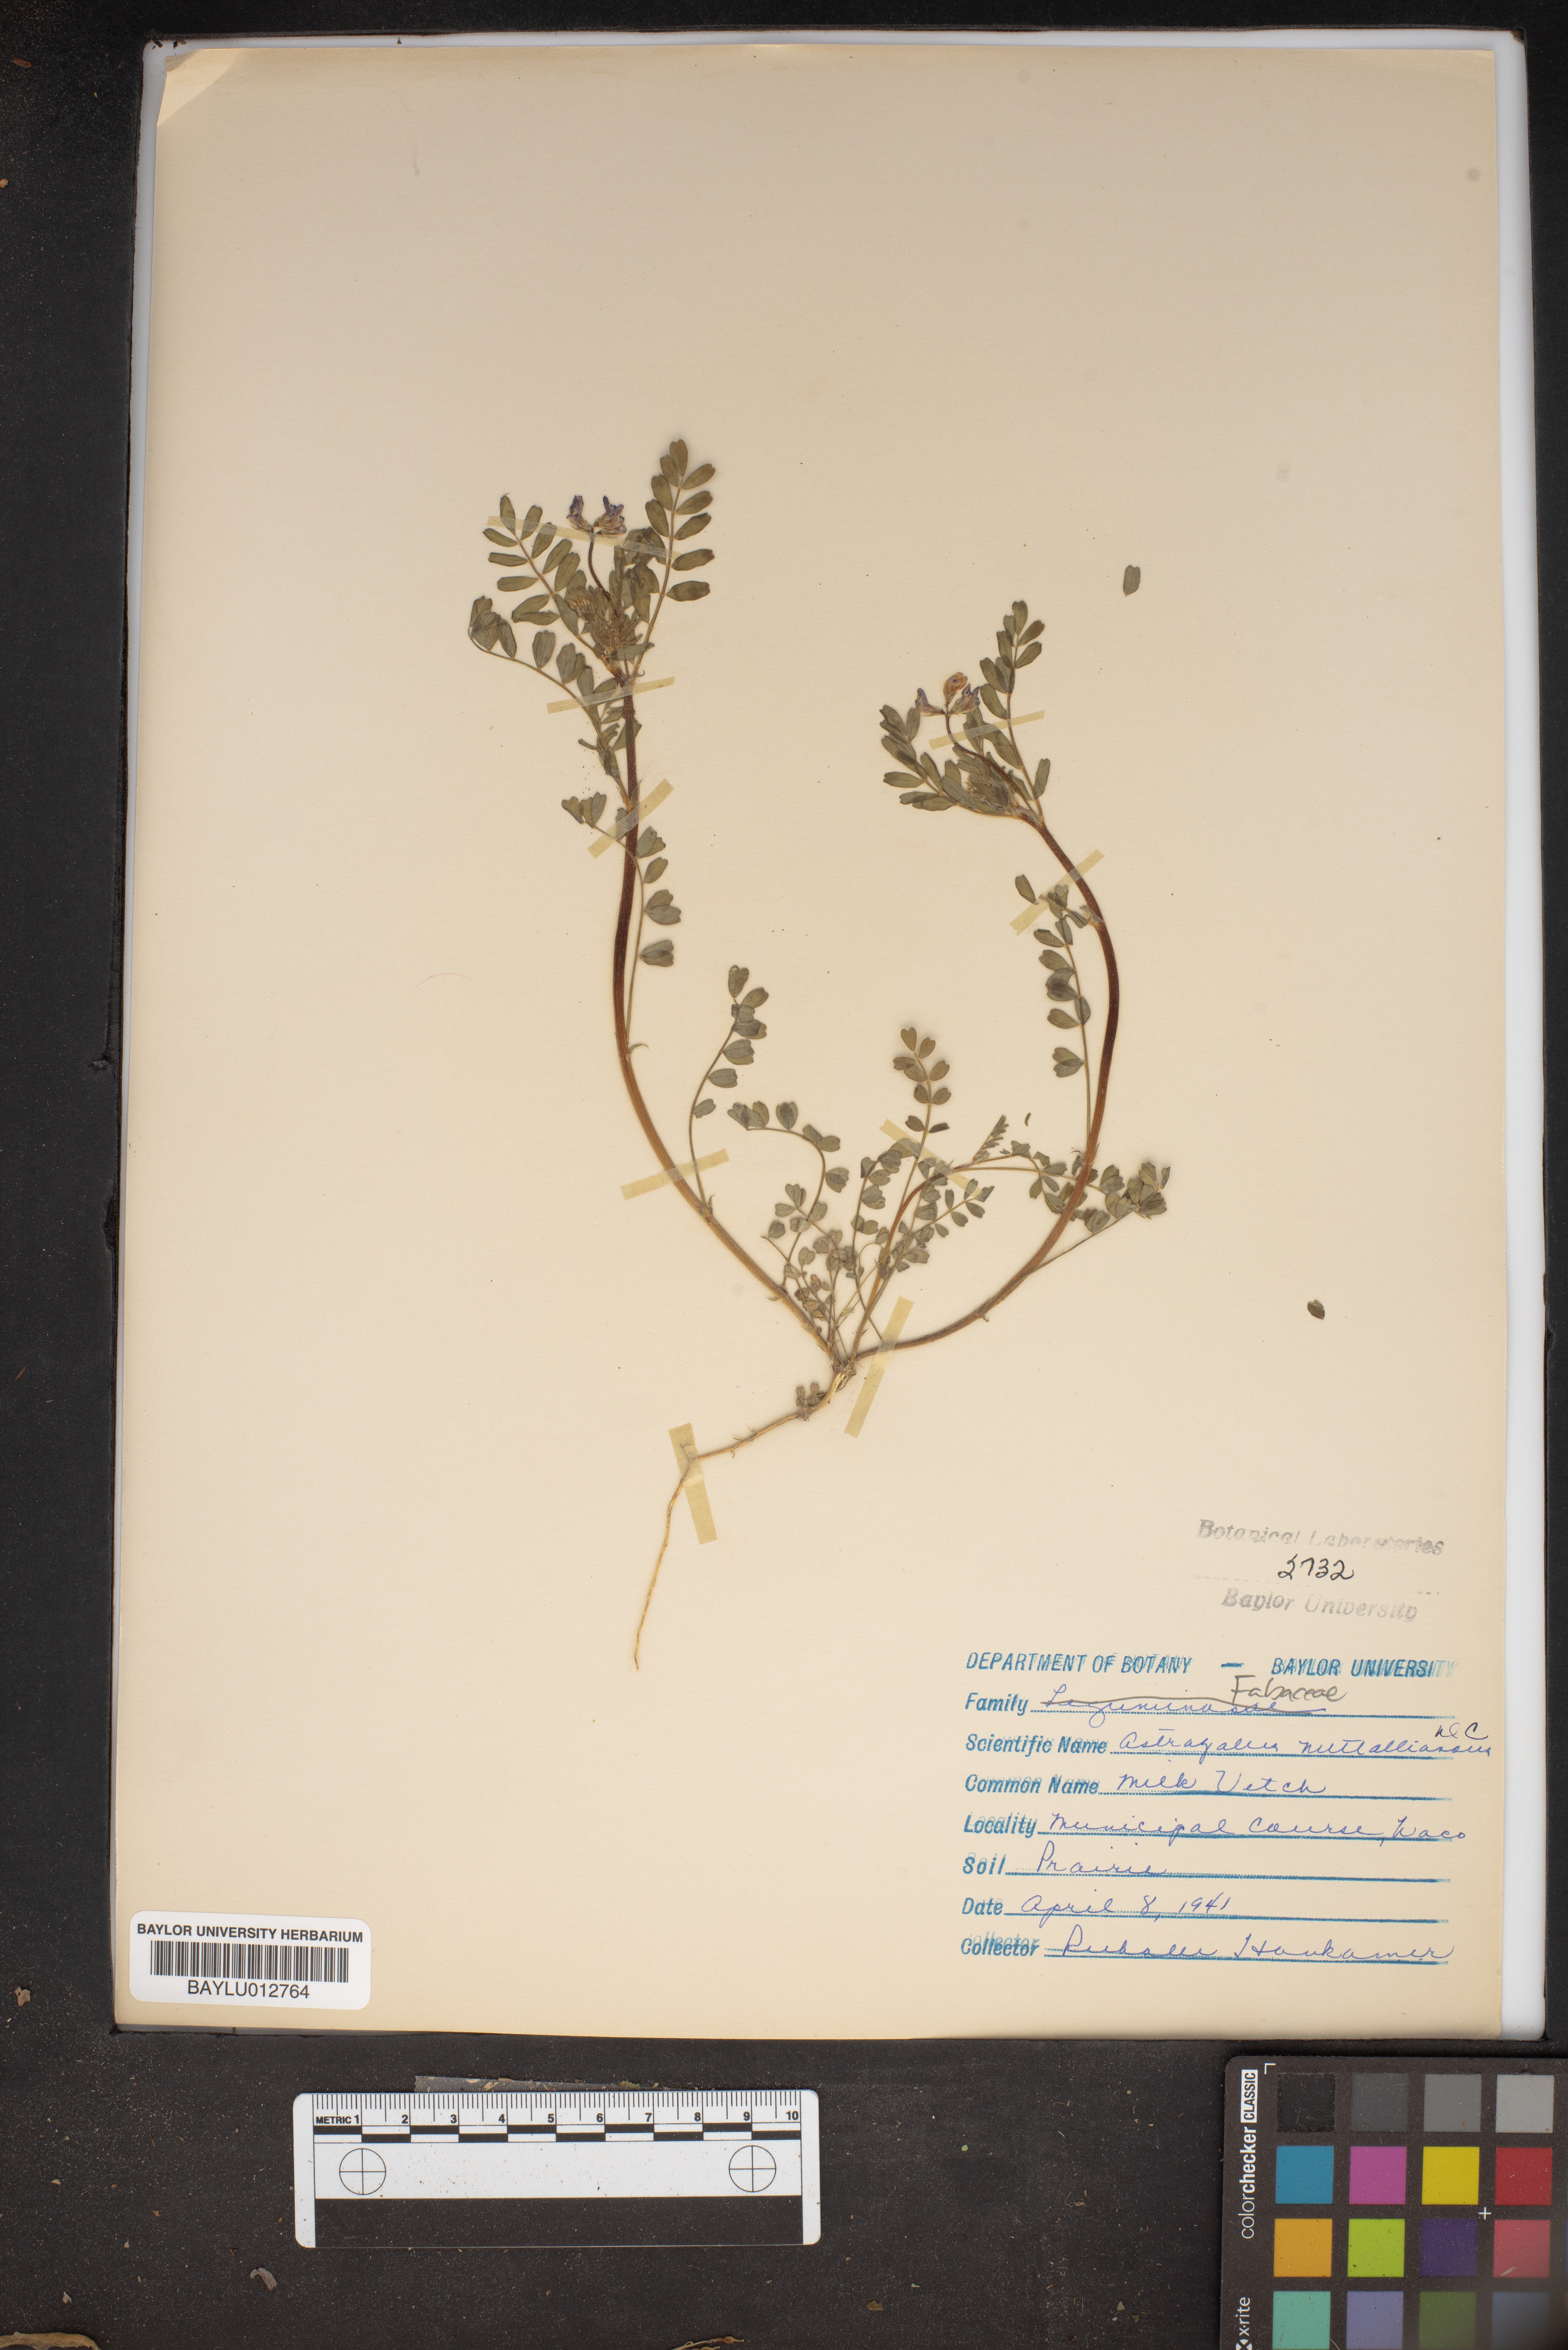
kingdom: Plantae
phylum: Tracheophyta
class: Magnoliopsida
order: Fabales
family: Fabaceae
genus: Astragalus
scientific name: Astragalus nuttallianus
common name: Smallflowered milkvetch
